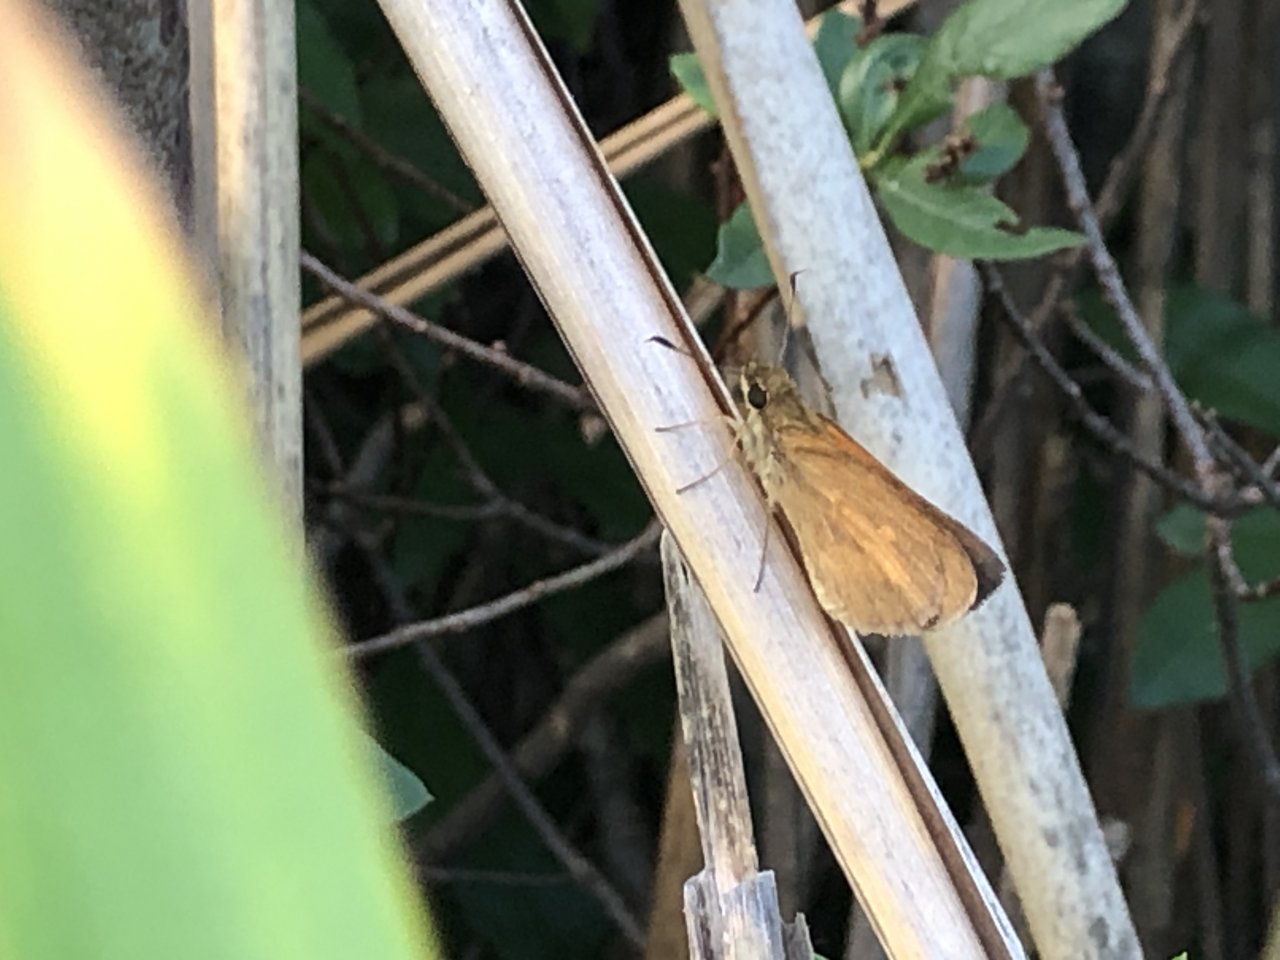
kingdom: Animalia
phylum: Arthropoda
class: Insecta
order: Lepidoptera
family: Hesperiidae
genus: Poanes
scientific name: Poanes viator
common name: Broad-winged Skipper
